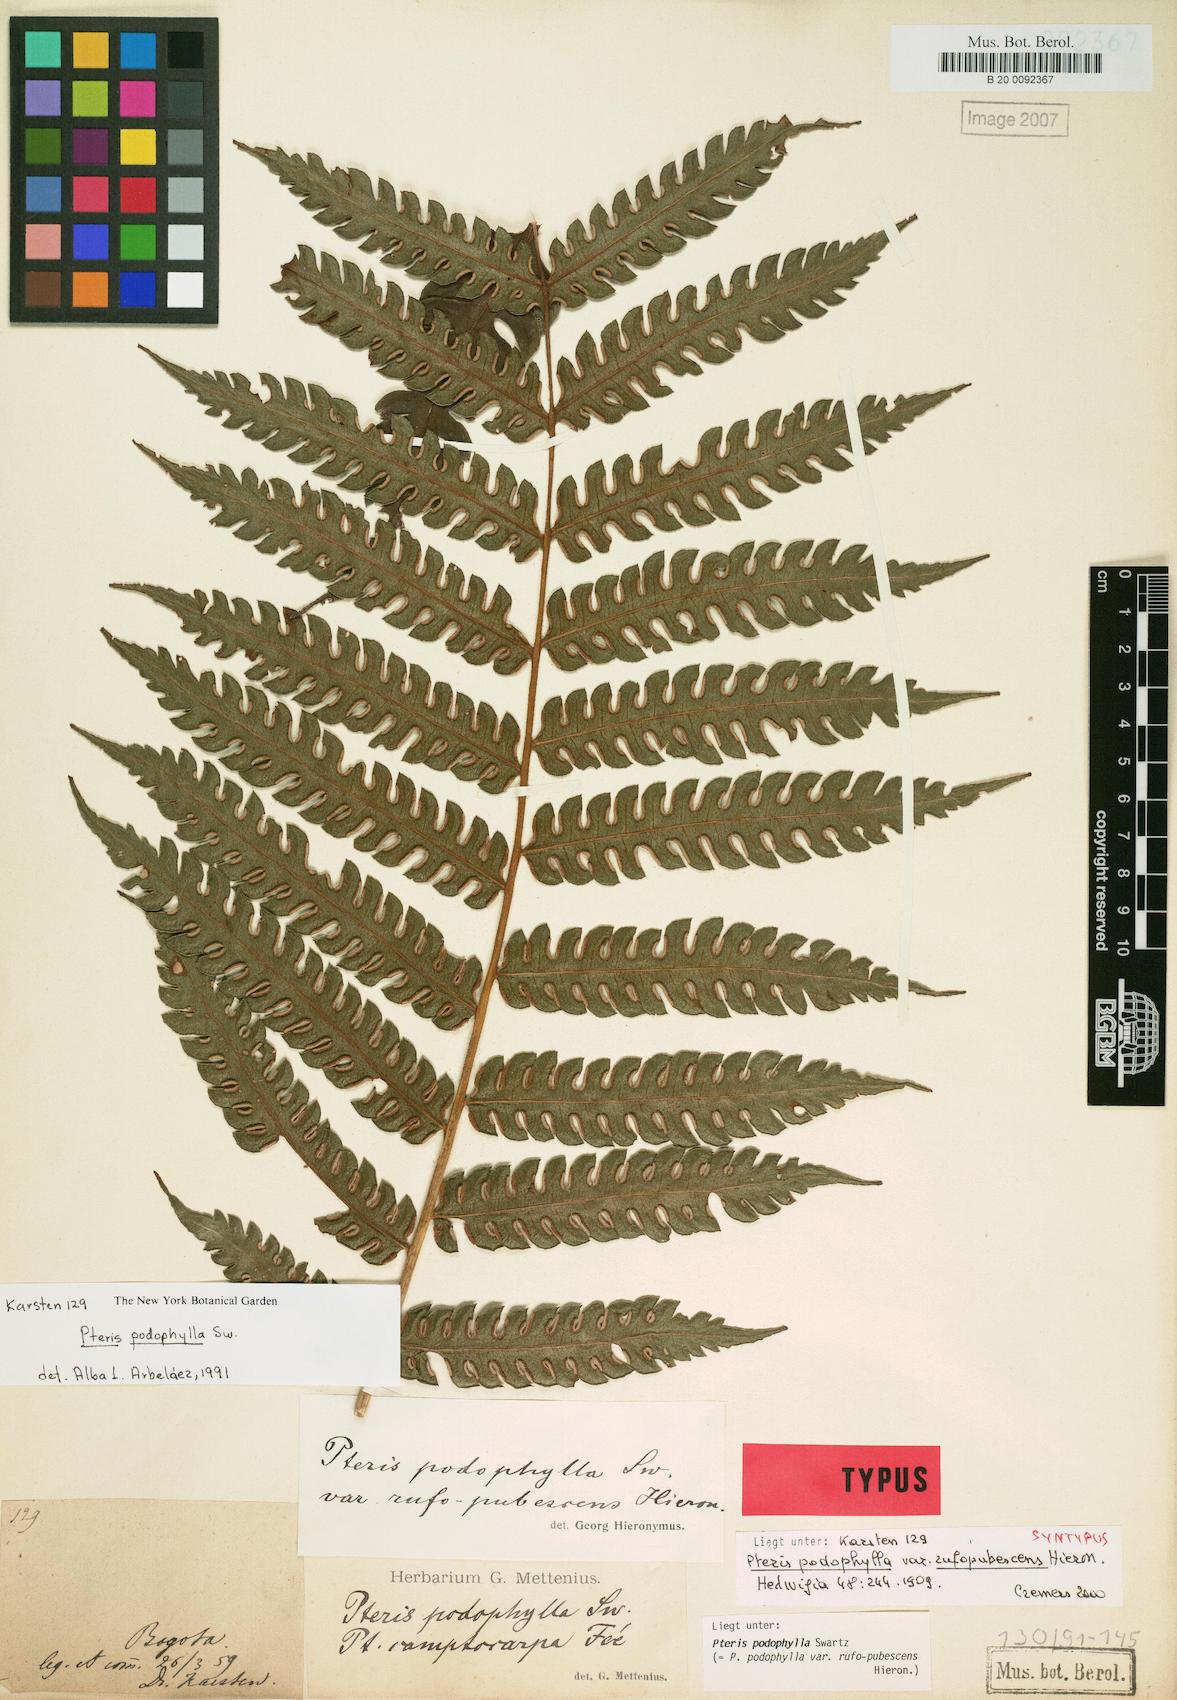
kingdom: Plantae
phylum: Tracheophyta
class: Polypodiopsida
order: Polypodiales
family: Pteridaceae
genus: Pteris
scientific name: Pteris podophylla
